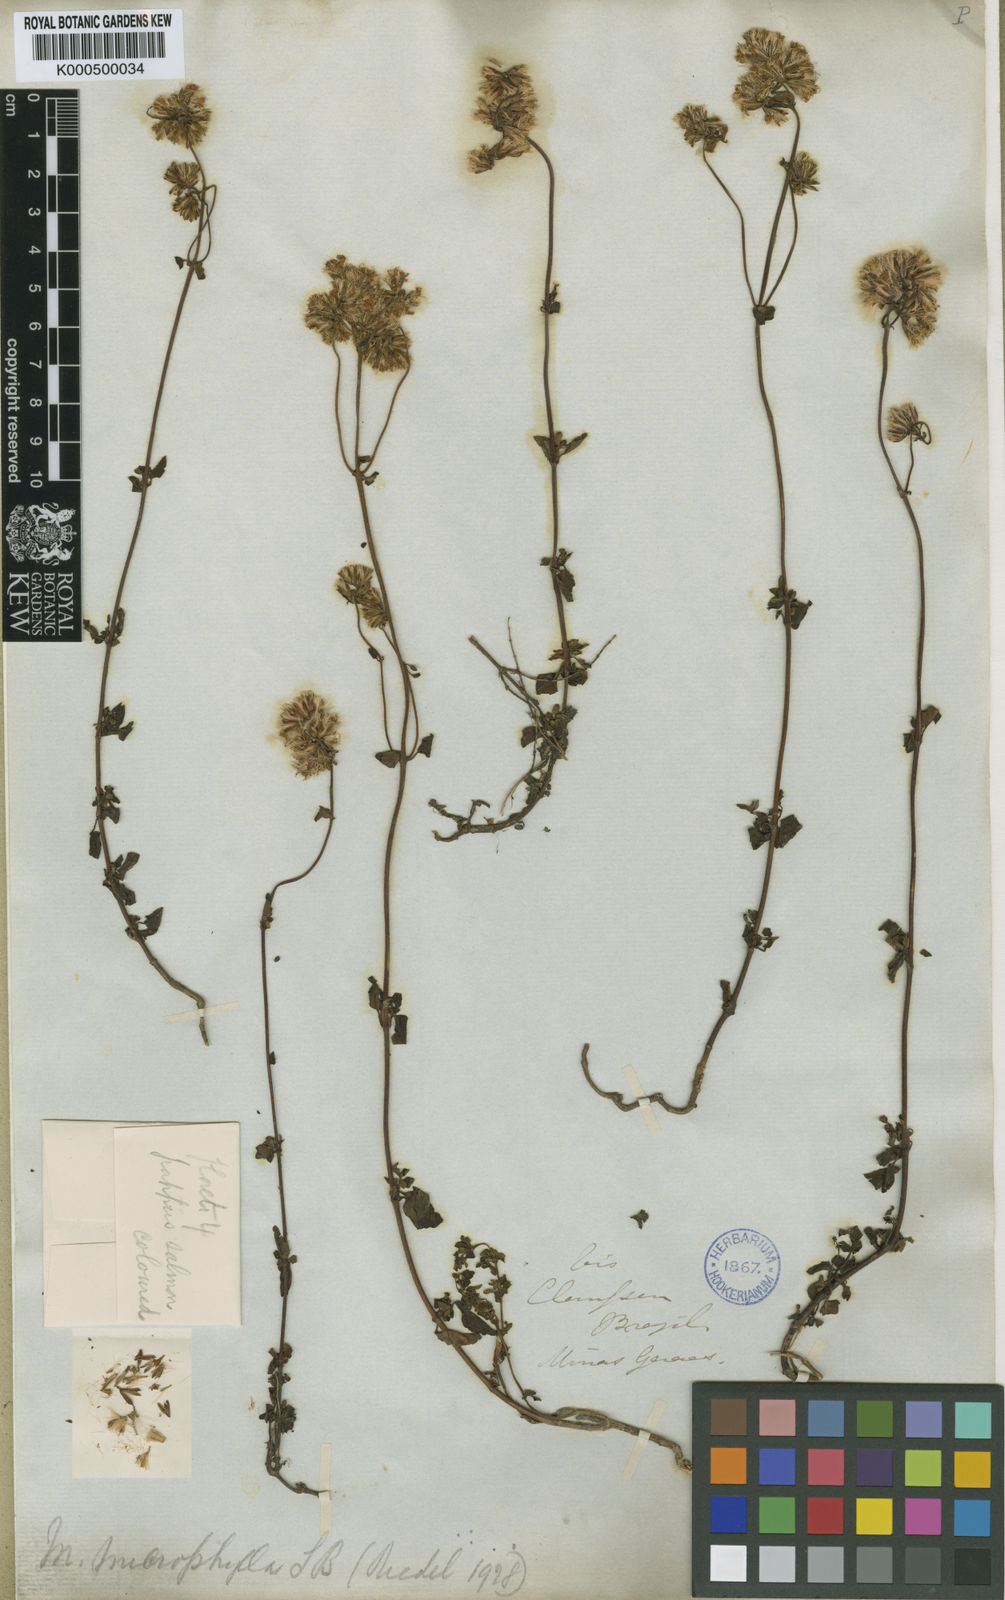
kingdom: Plantae
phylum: Tracheophyta
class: Magnoliopsida
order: Asterales
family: Asteraceae
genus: Mikania
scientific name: Mikania microphylla
